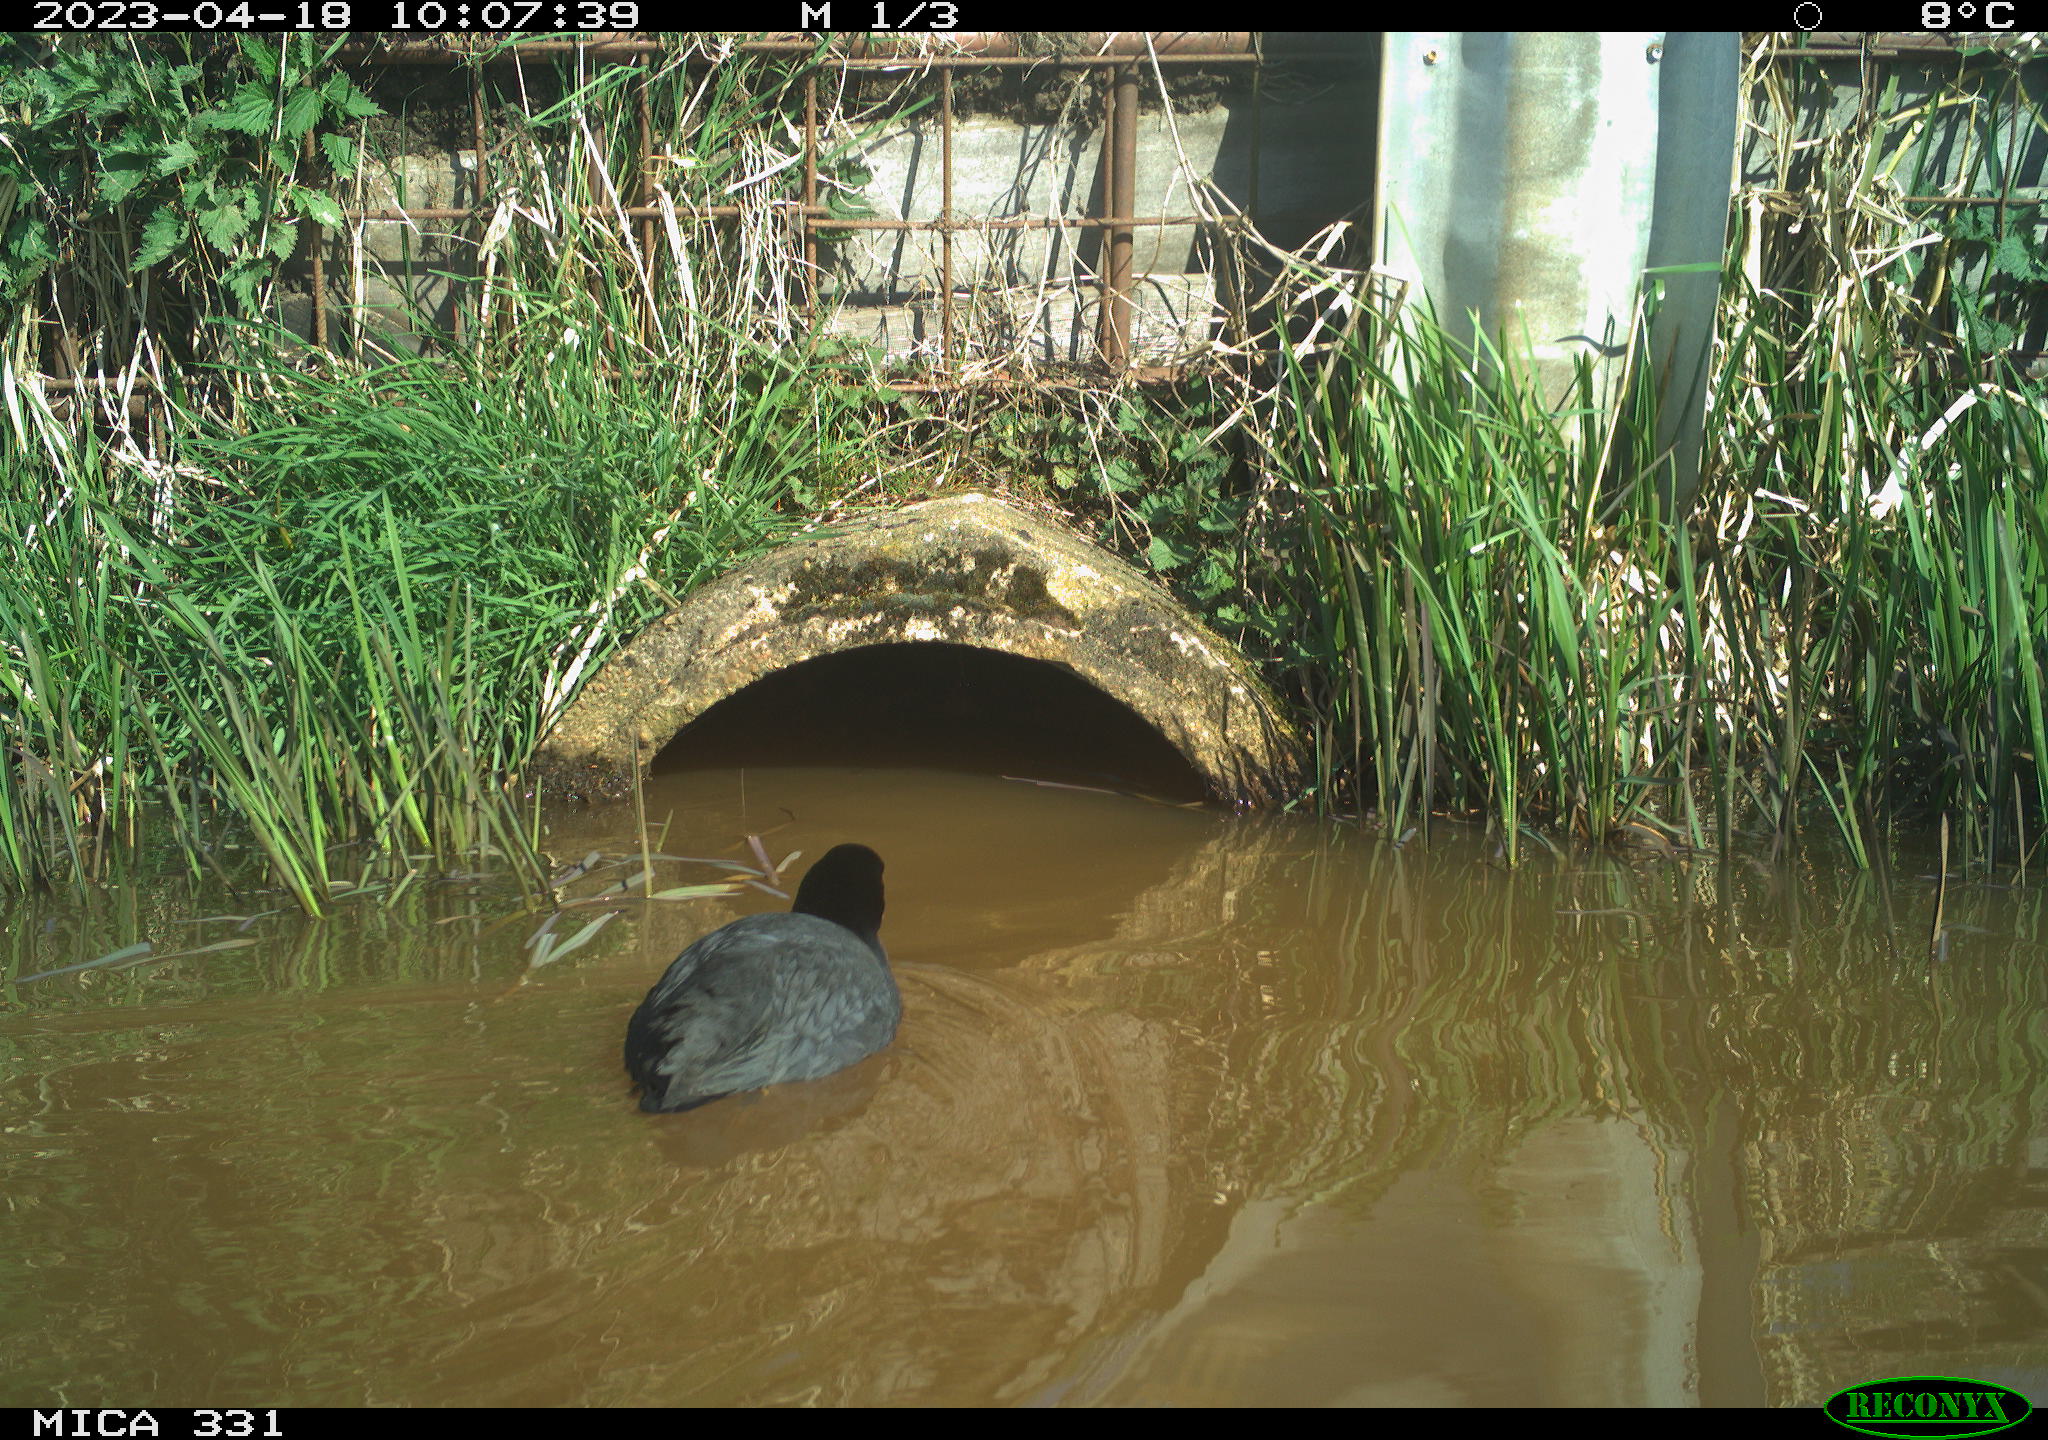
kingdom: Animalia
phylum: Chordata
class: Aves
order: Gruiformes
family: Rallidae
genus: Fulica
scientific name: Fulica atra
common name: Eurasian coot
